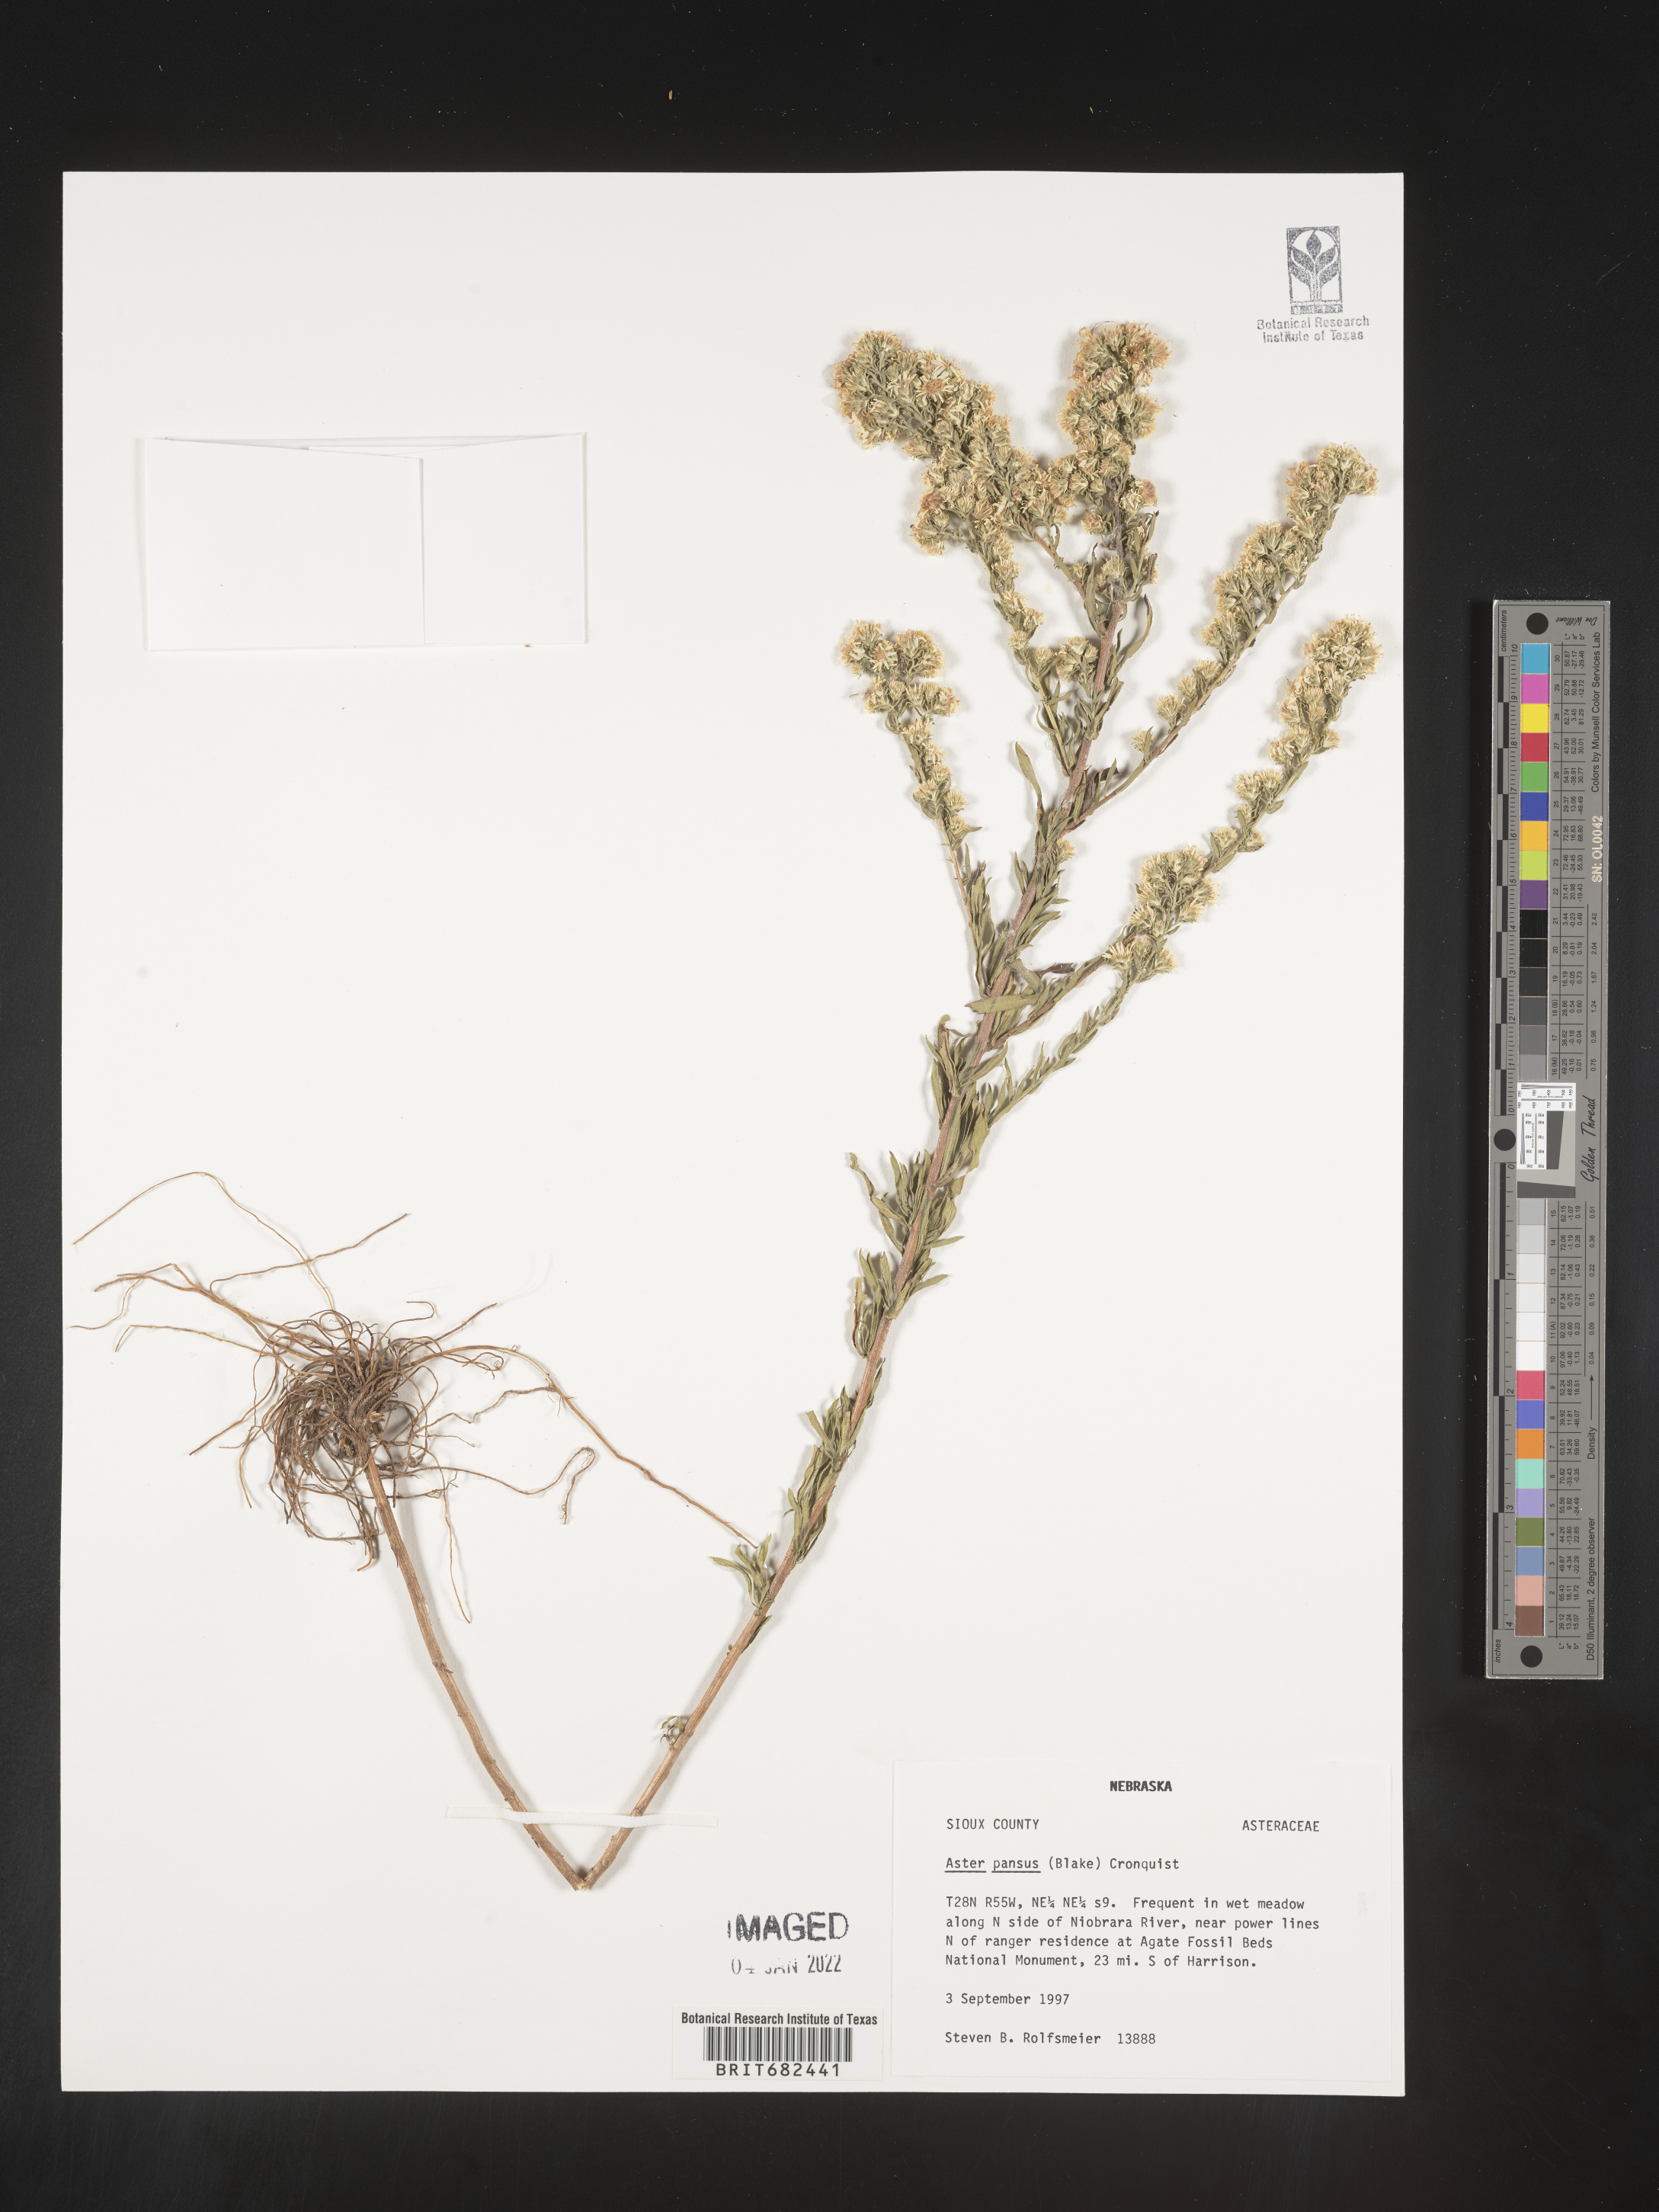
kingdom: Plantae
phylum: Tracheophyta
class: Magnoliopsida
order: Asterales
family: Asteraceae
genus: Aster
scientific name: Aster
